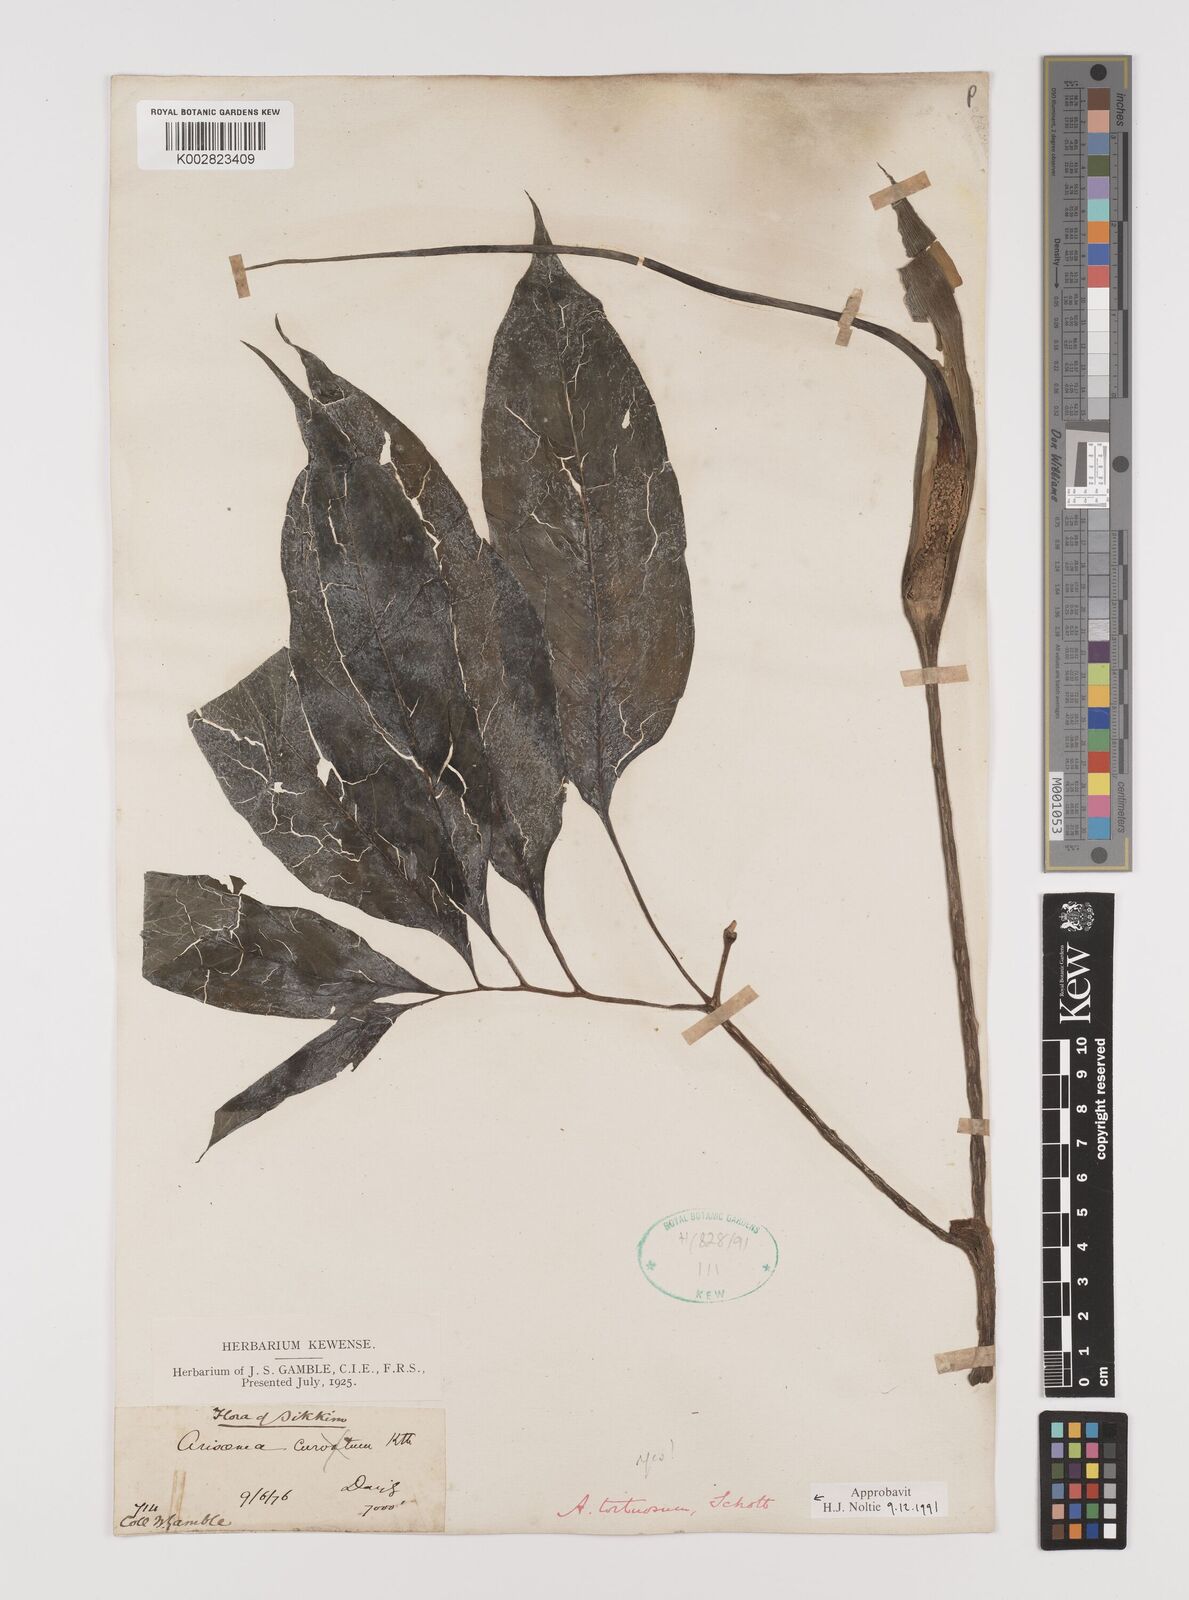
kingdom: Plantae
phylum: Tracheophyta
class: Liliopsida
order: Alismatales
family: Araceae
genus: Arisaema
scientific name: Arisaema tortuosum
